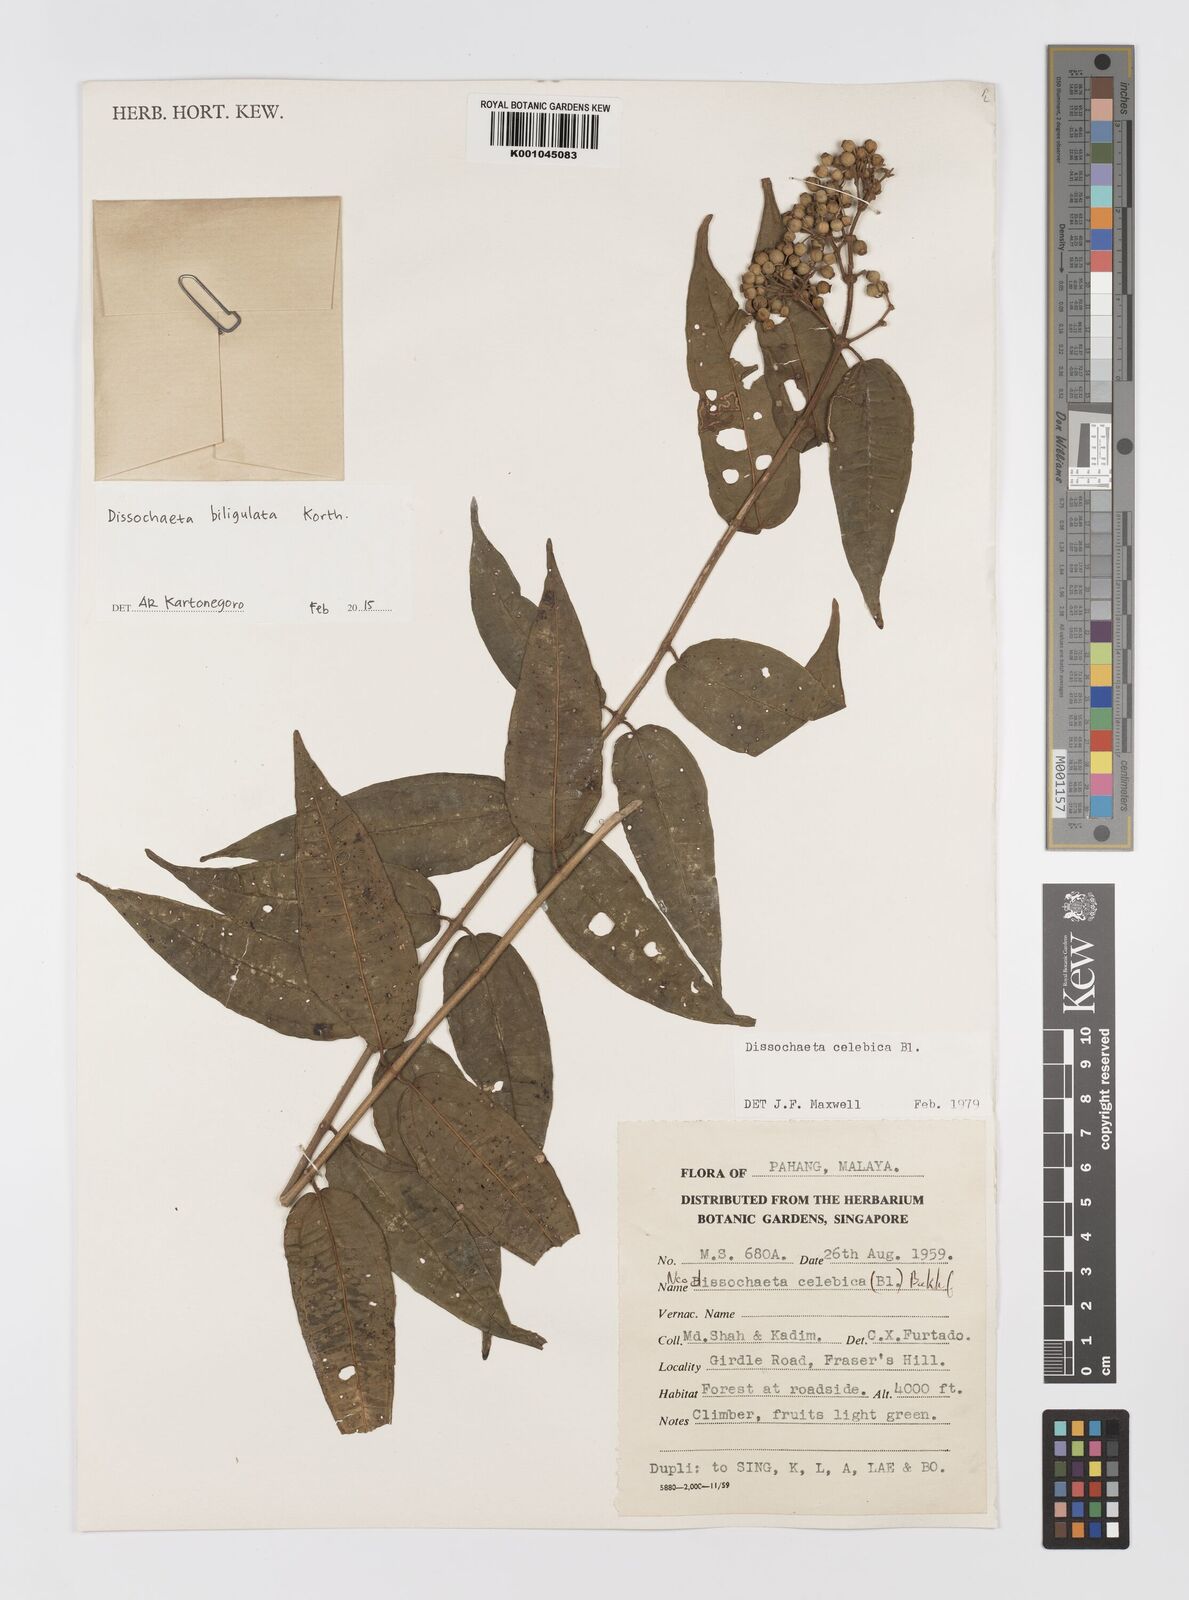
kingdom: Plantae
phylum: Tracheophyta
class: Magnoliopsida
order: Myrtales
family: Melastomataceae
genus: Dissochaeta
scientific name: Dissochaeta biligulata
